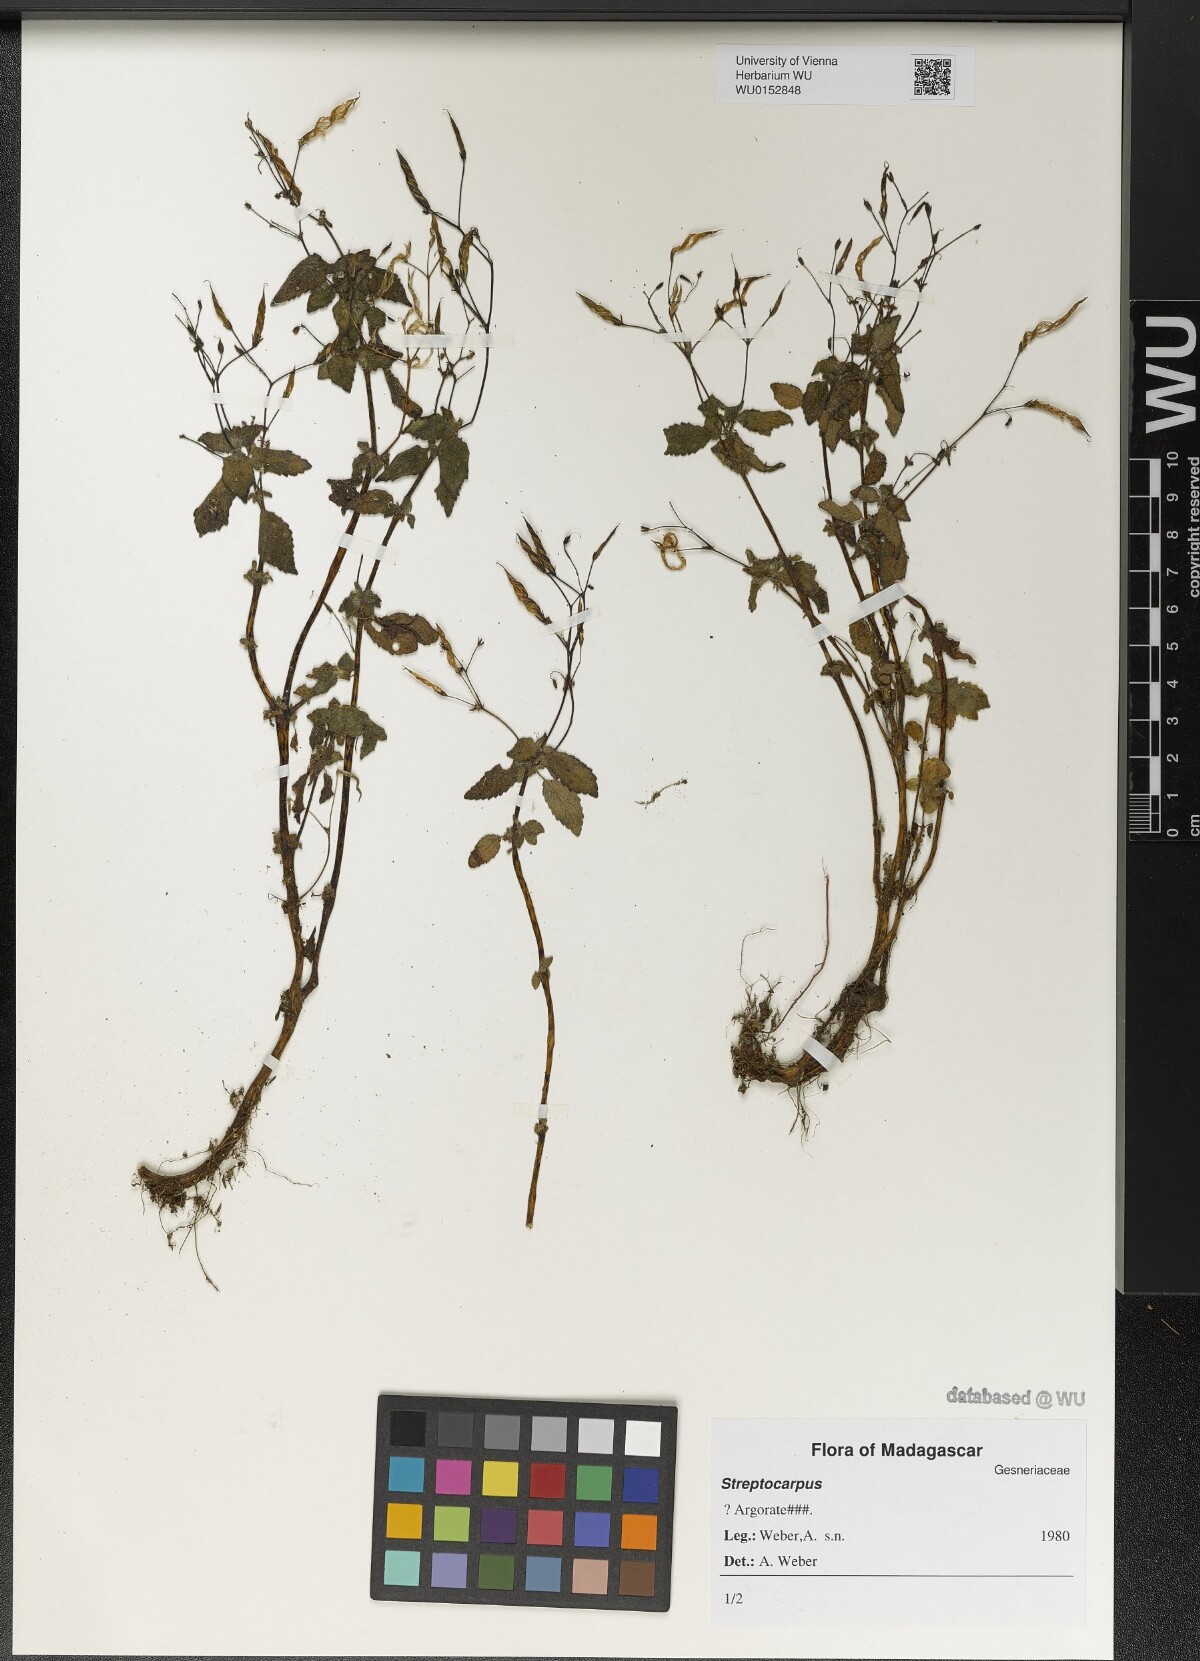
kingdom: Plantae
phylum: Tracheophyta
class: Magnoliopsida
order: Lamiales
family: Gesneriaceae
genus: Streptocarpus
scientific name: Streptocarpus
